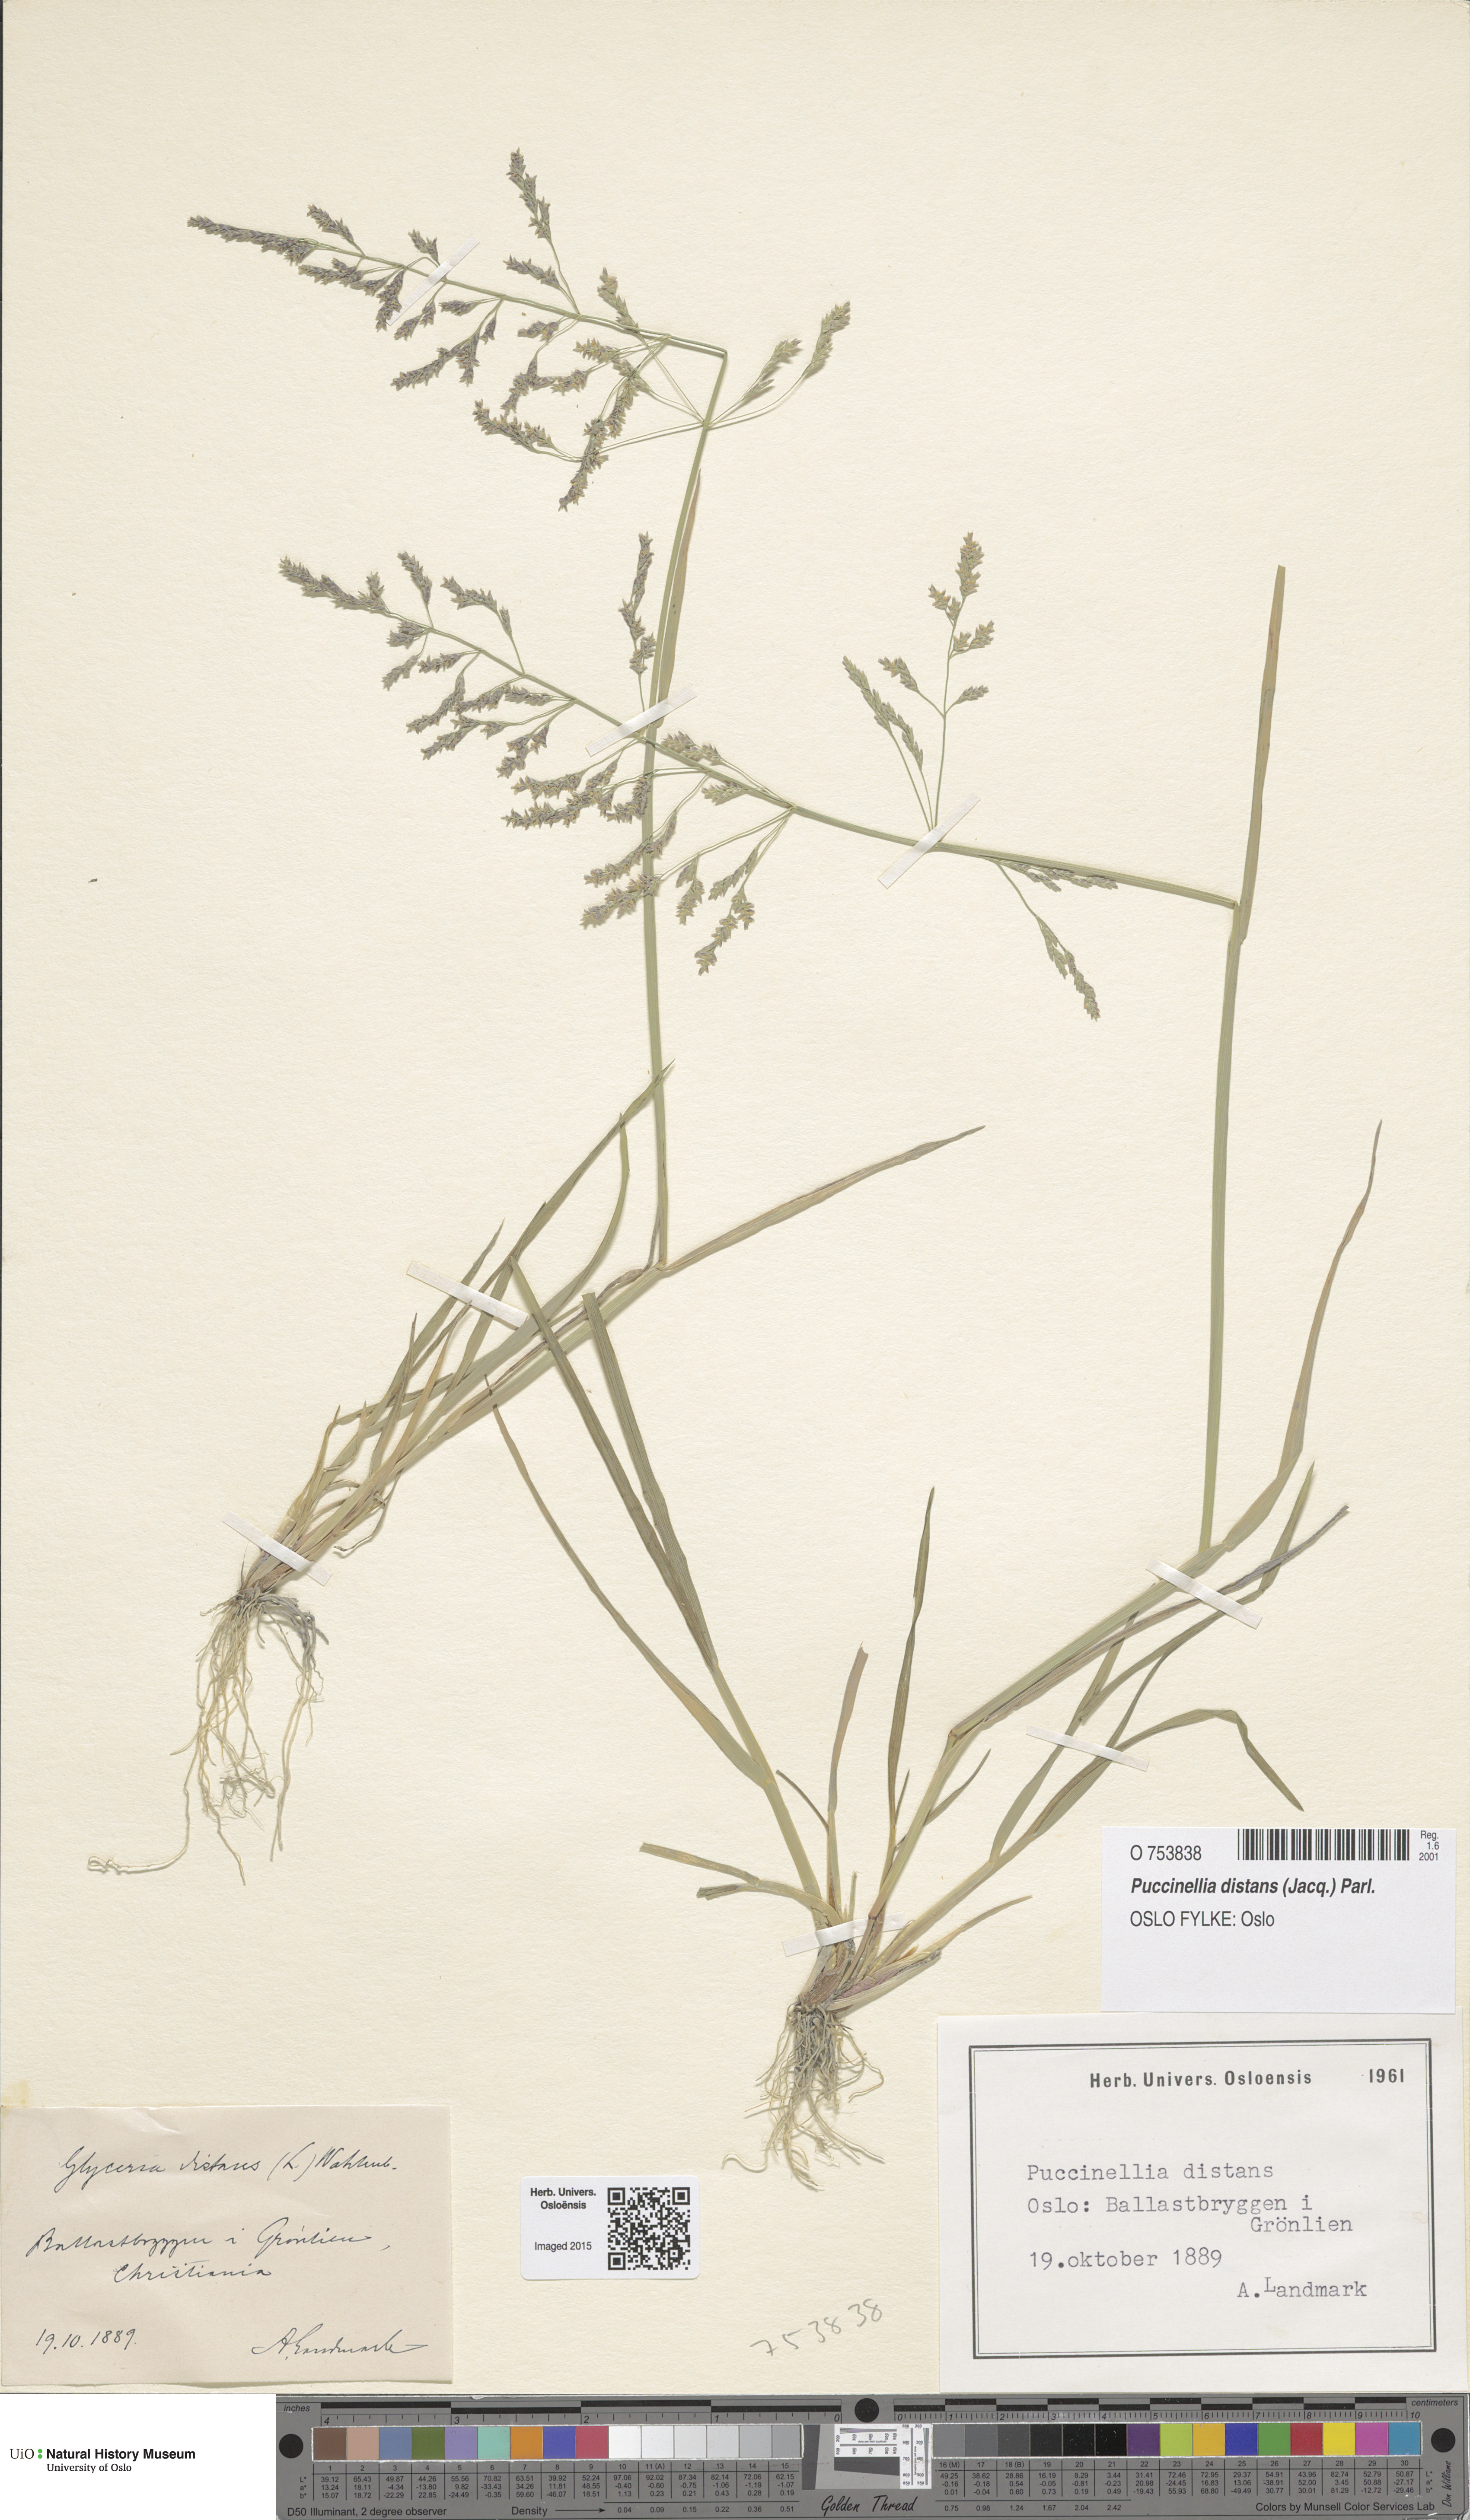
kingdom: Plantae
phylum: Tracheophyta
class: Liliopsida
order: Poales
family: Poaceae
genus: Puccinellia
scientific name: Puccinellia distans
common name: Weeping alkaligrass
